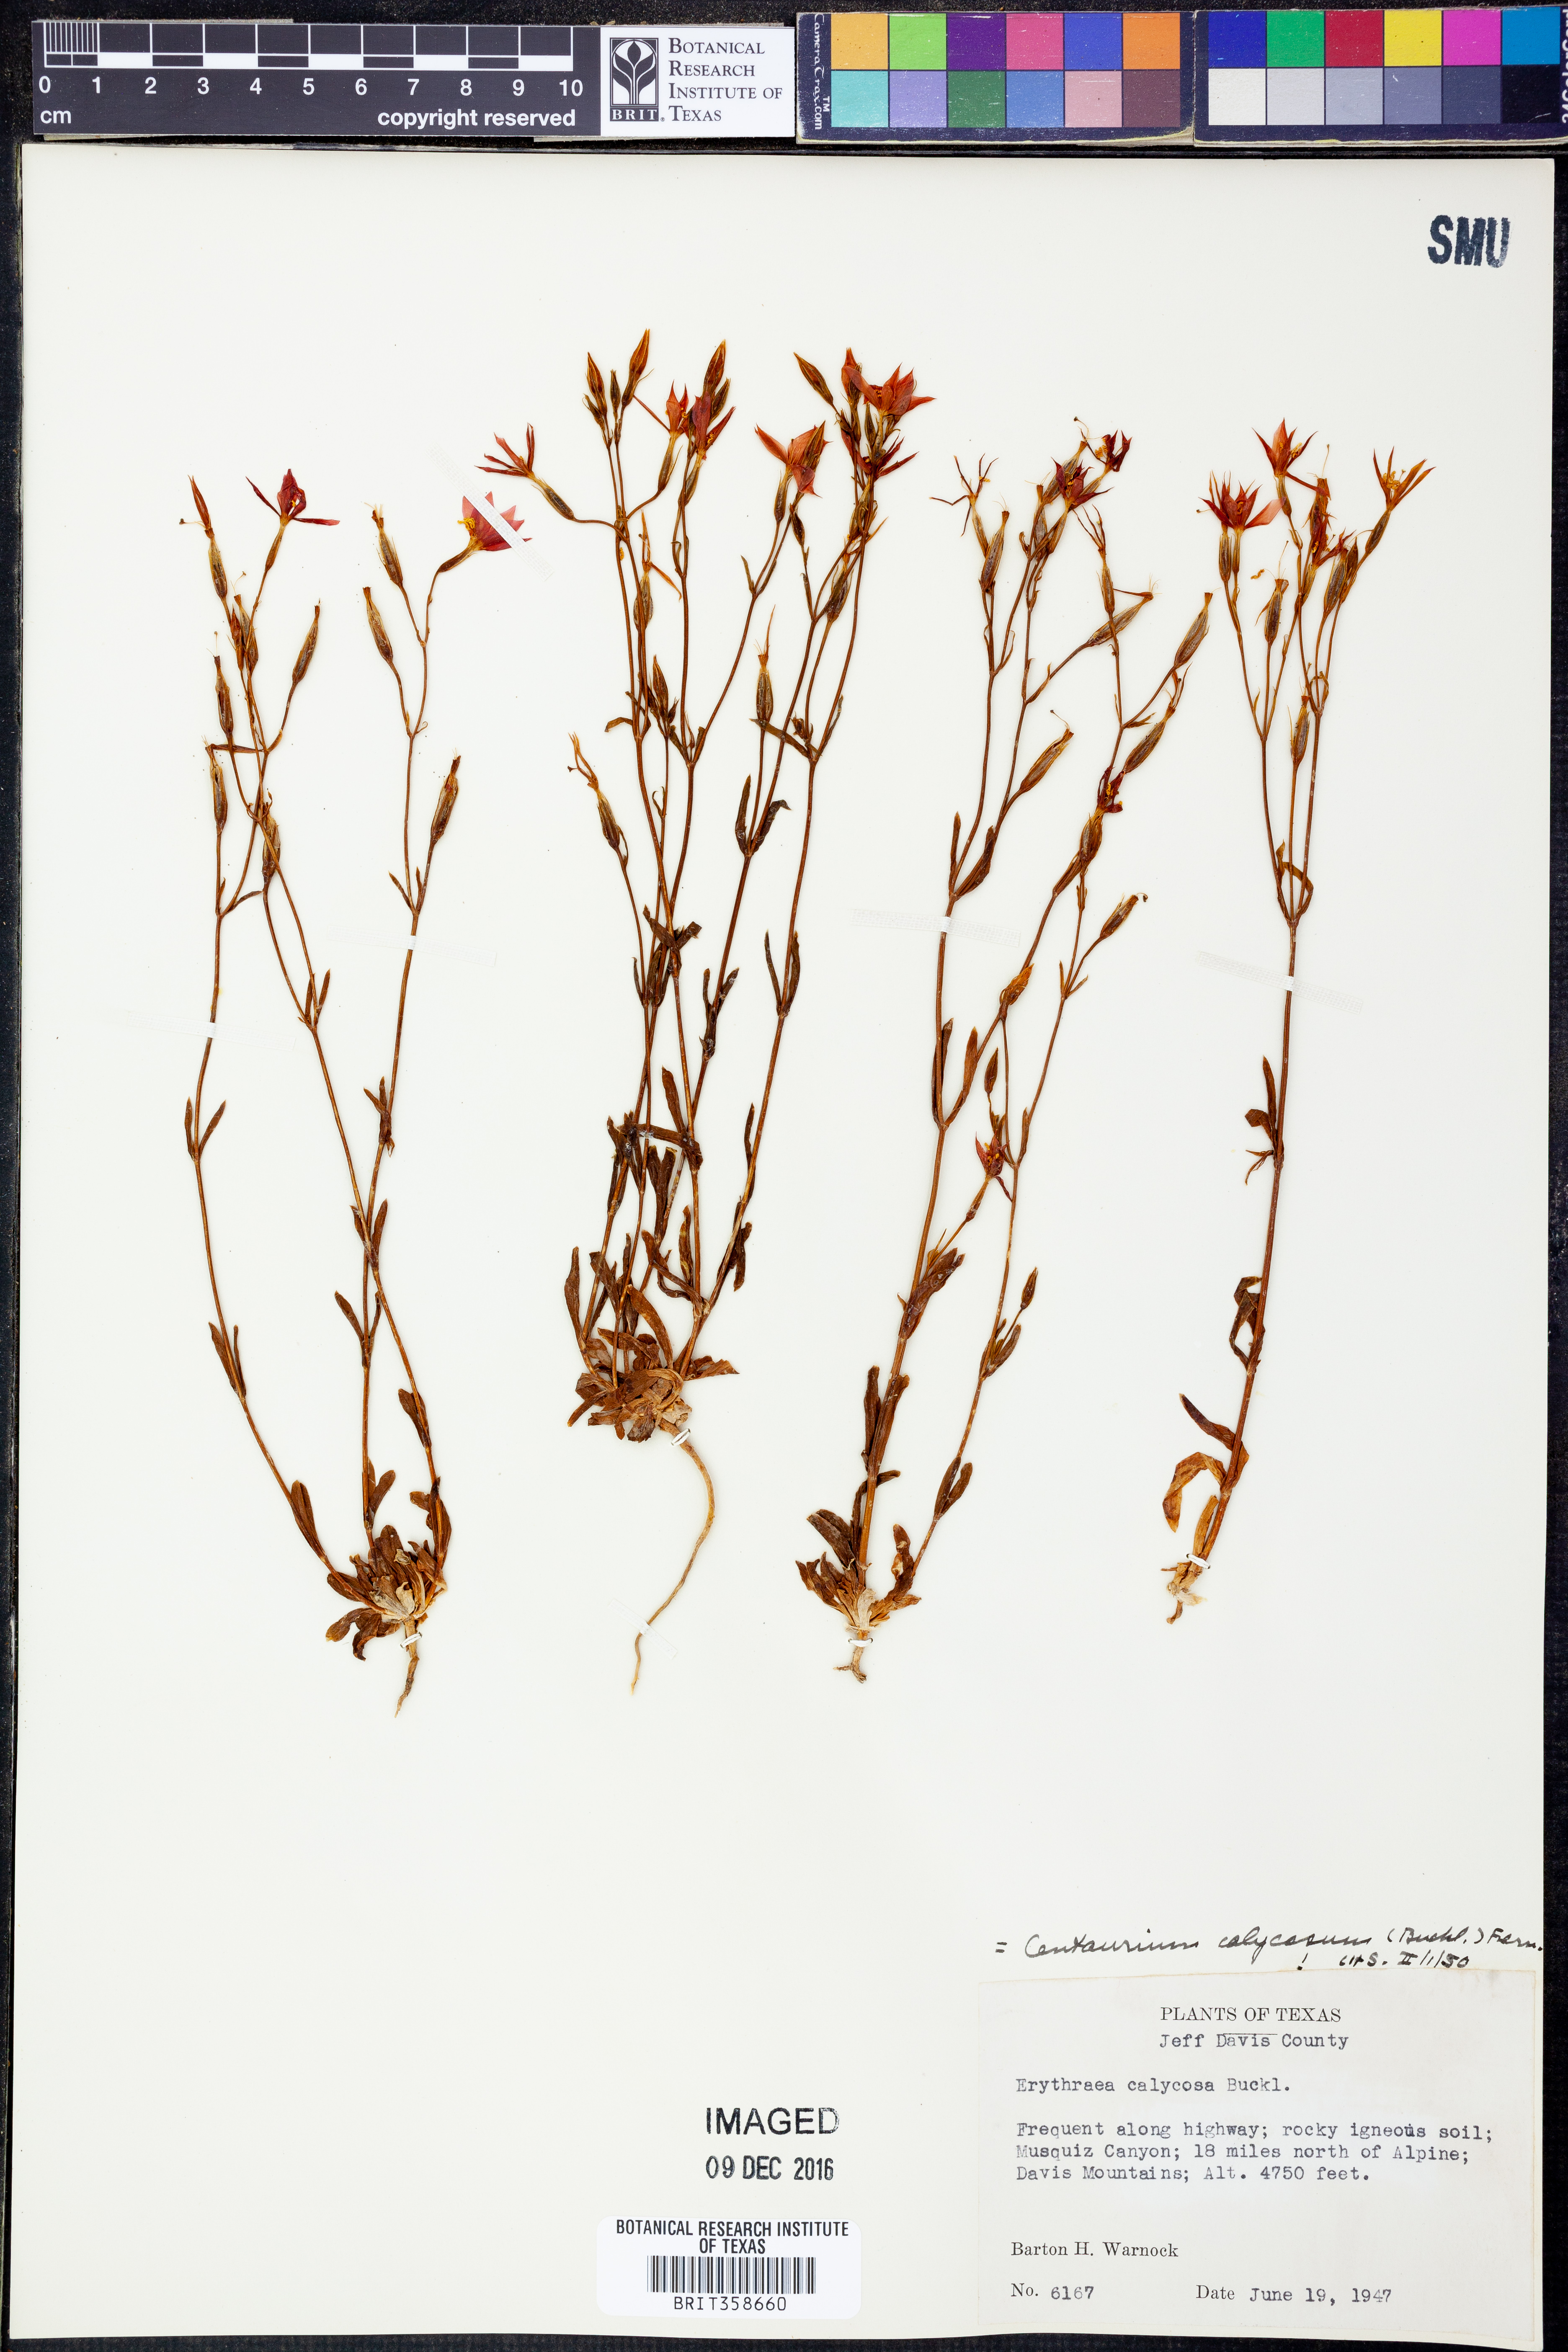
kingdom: Plantae
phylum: Tracheophyta
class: Magnoliopsida
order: Gentianales
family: Gentianaceae
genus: Zeltnera
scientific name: Zeltnera calycosa
